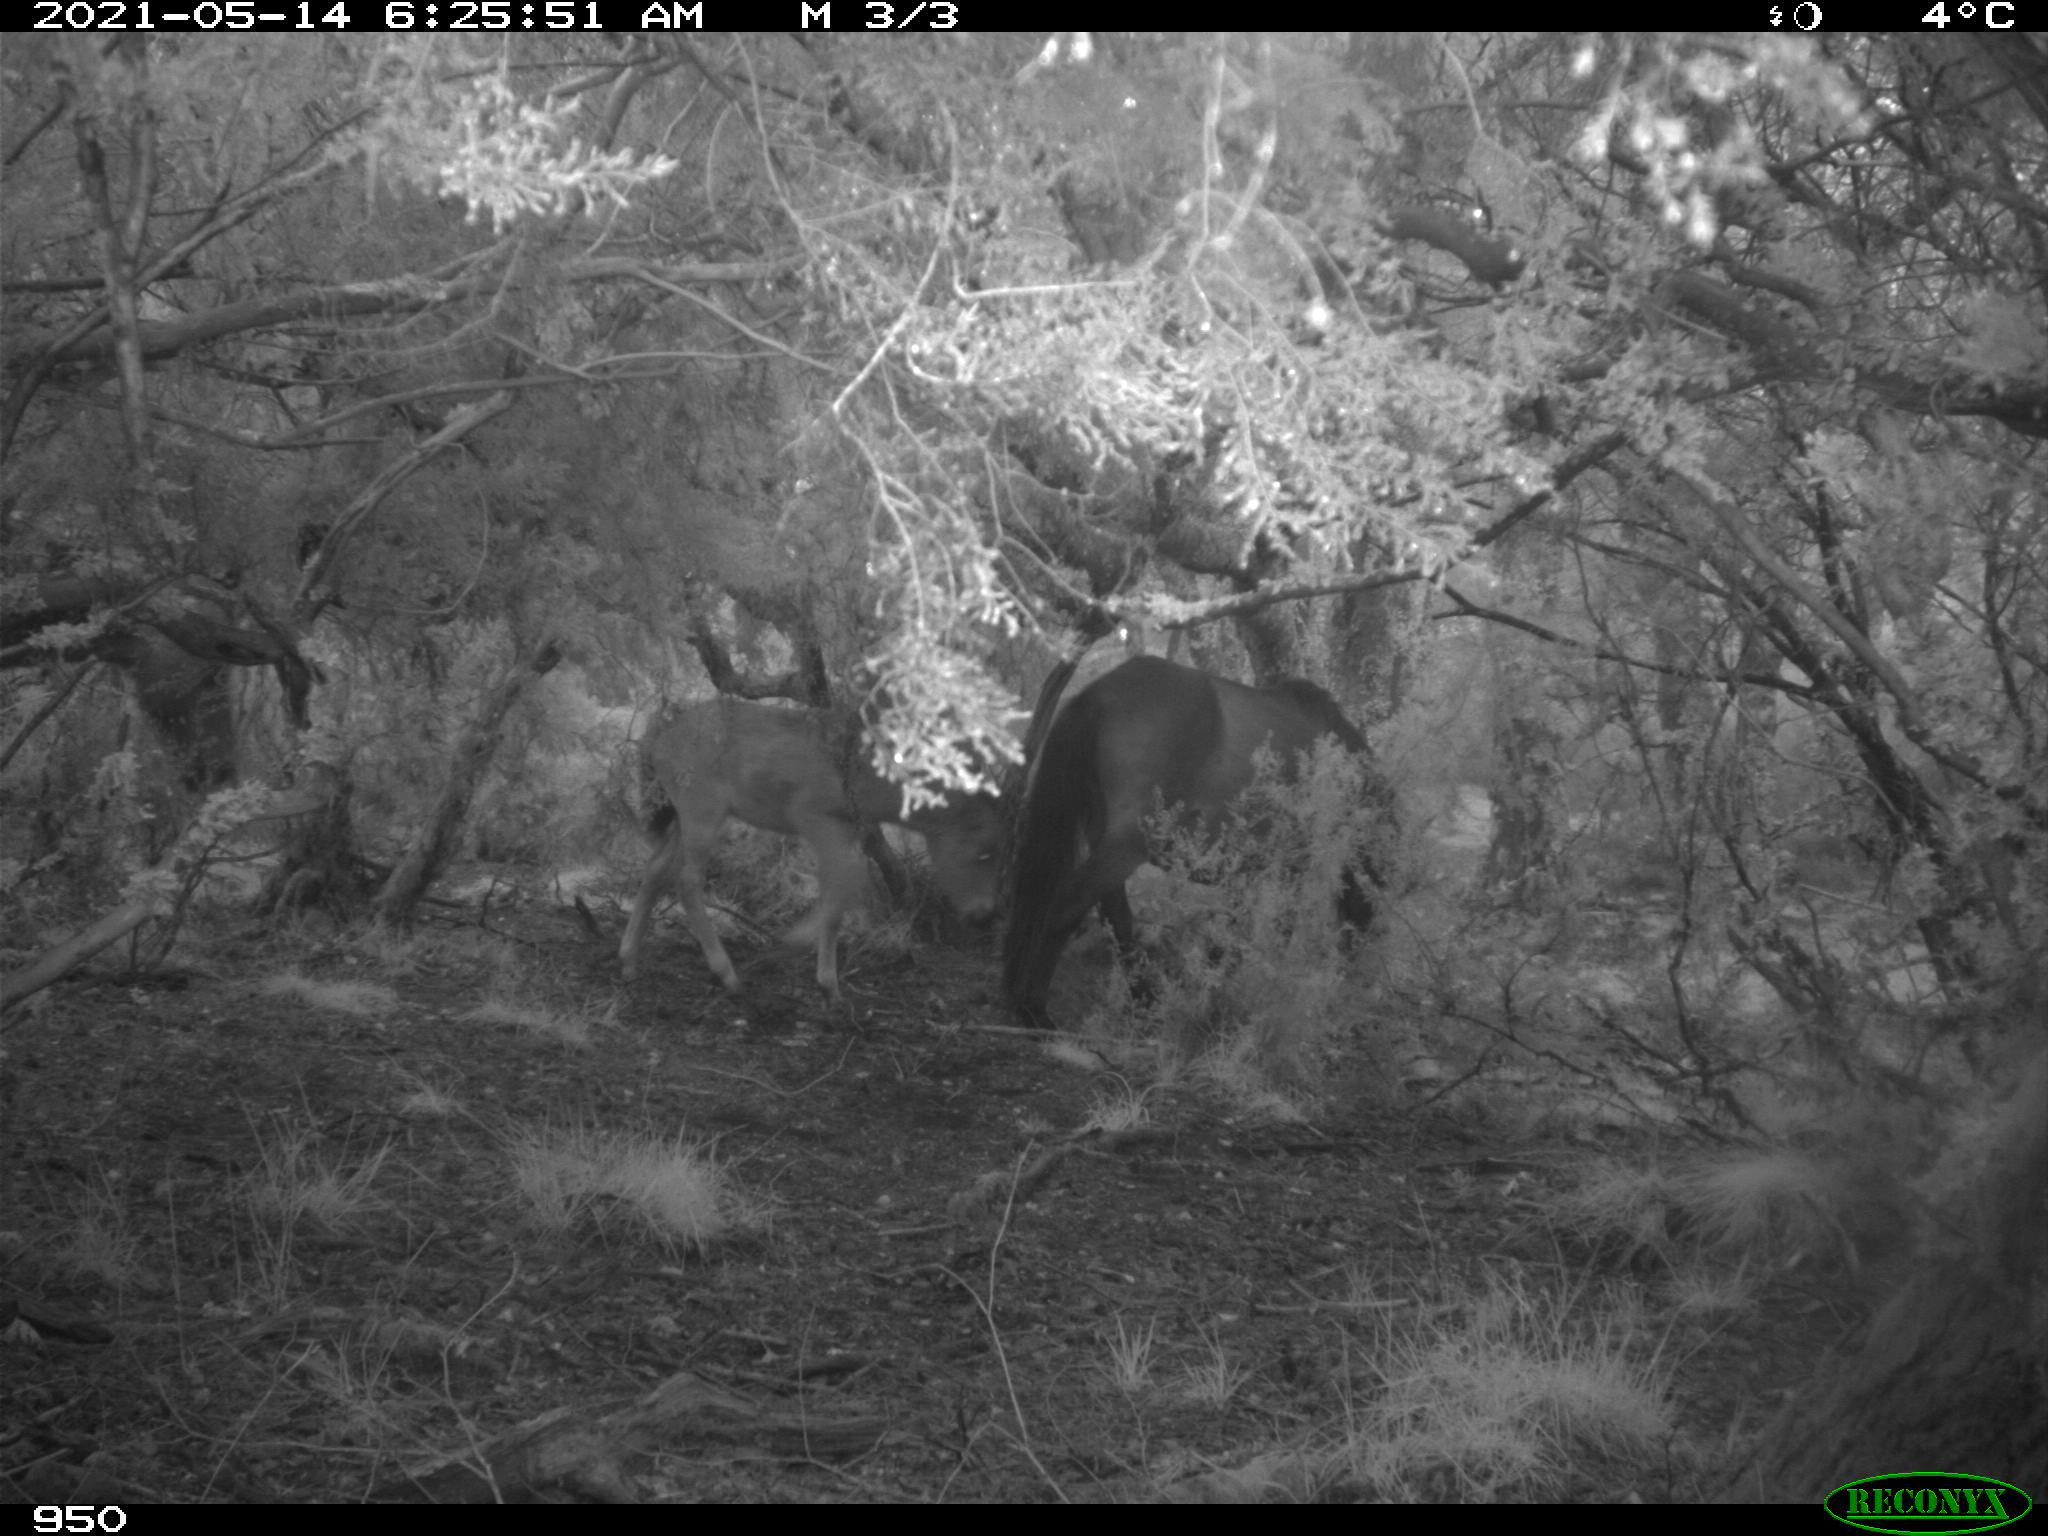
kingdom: Animalia
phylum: Chordata
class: Mammalia
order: Perissodactyla
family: Equidae
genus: Equus
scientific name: Equus caballus
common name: Horse
